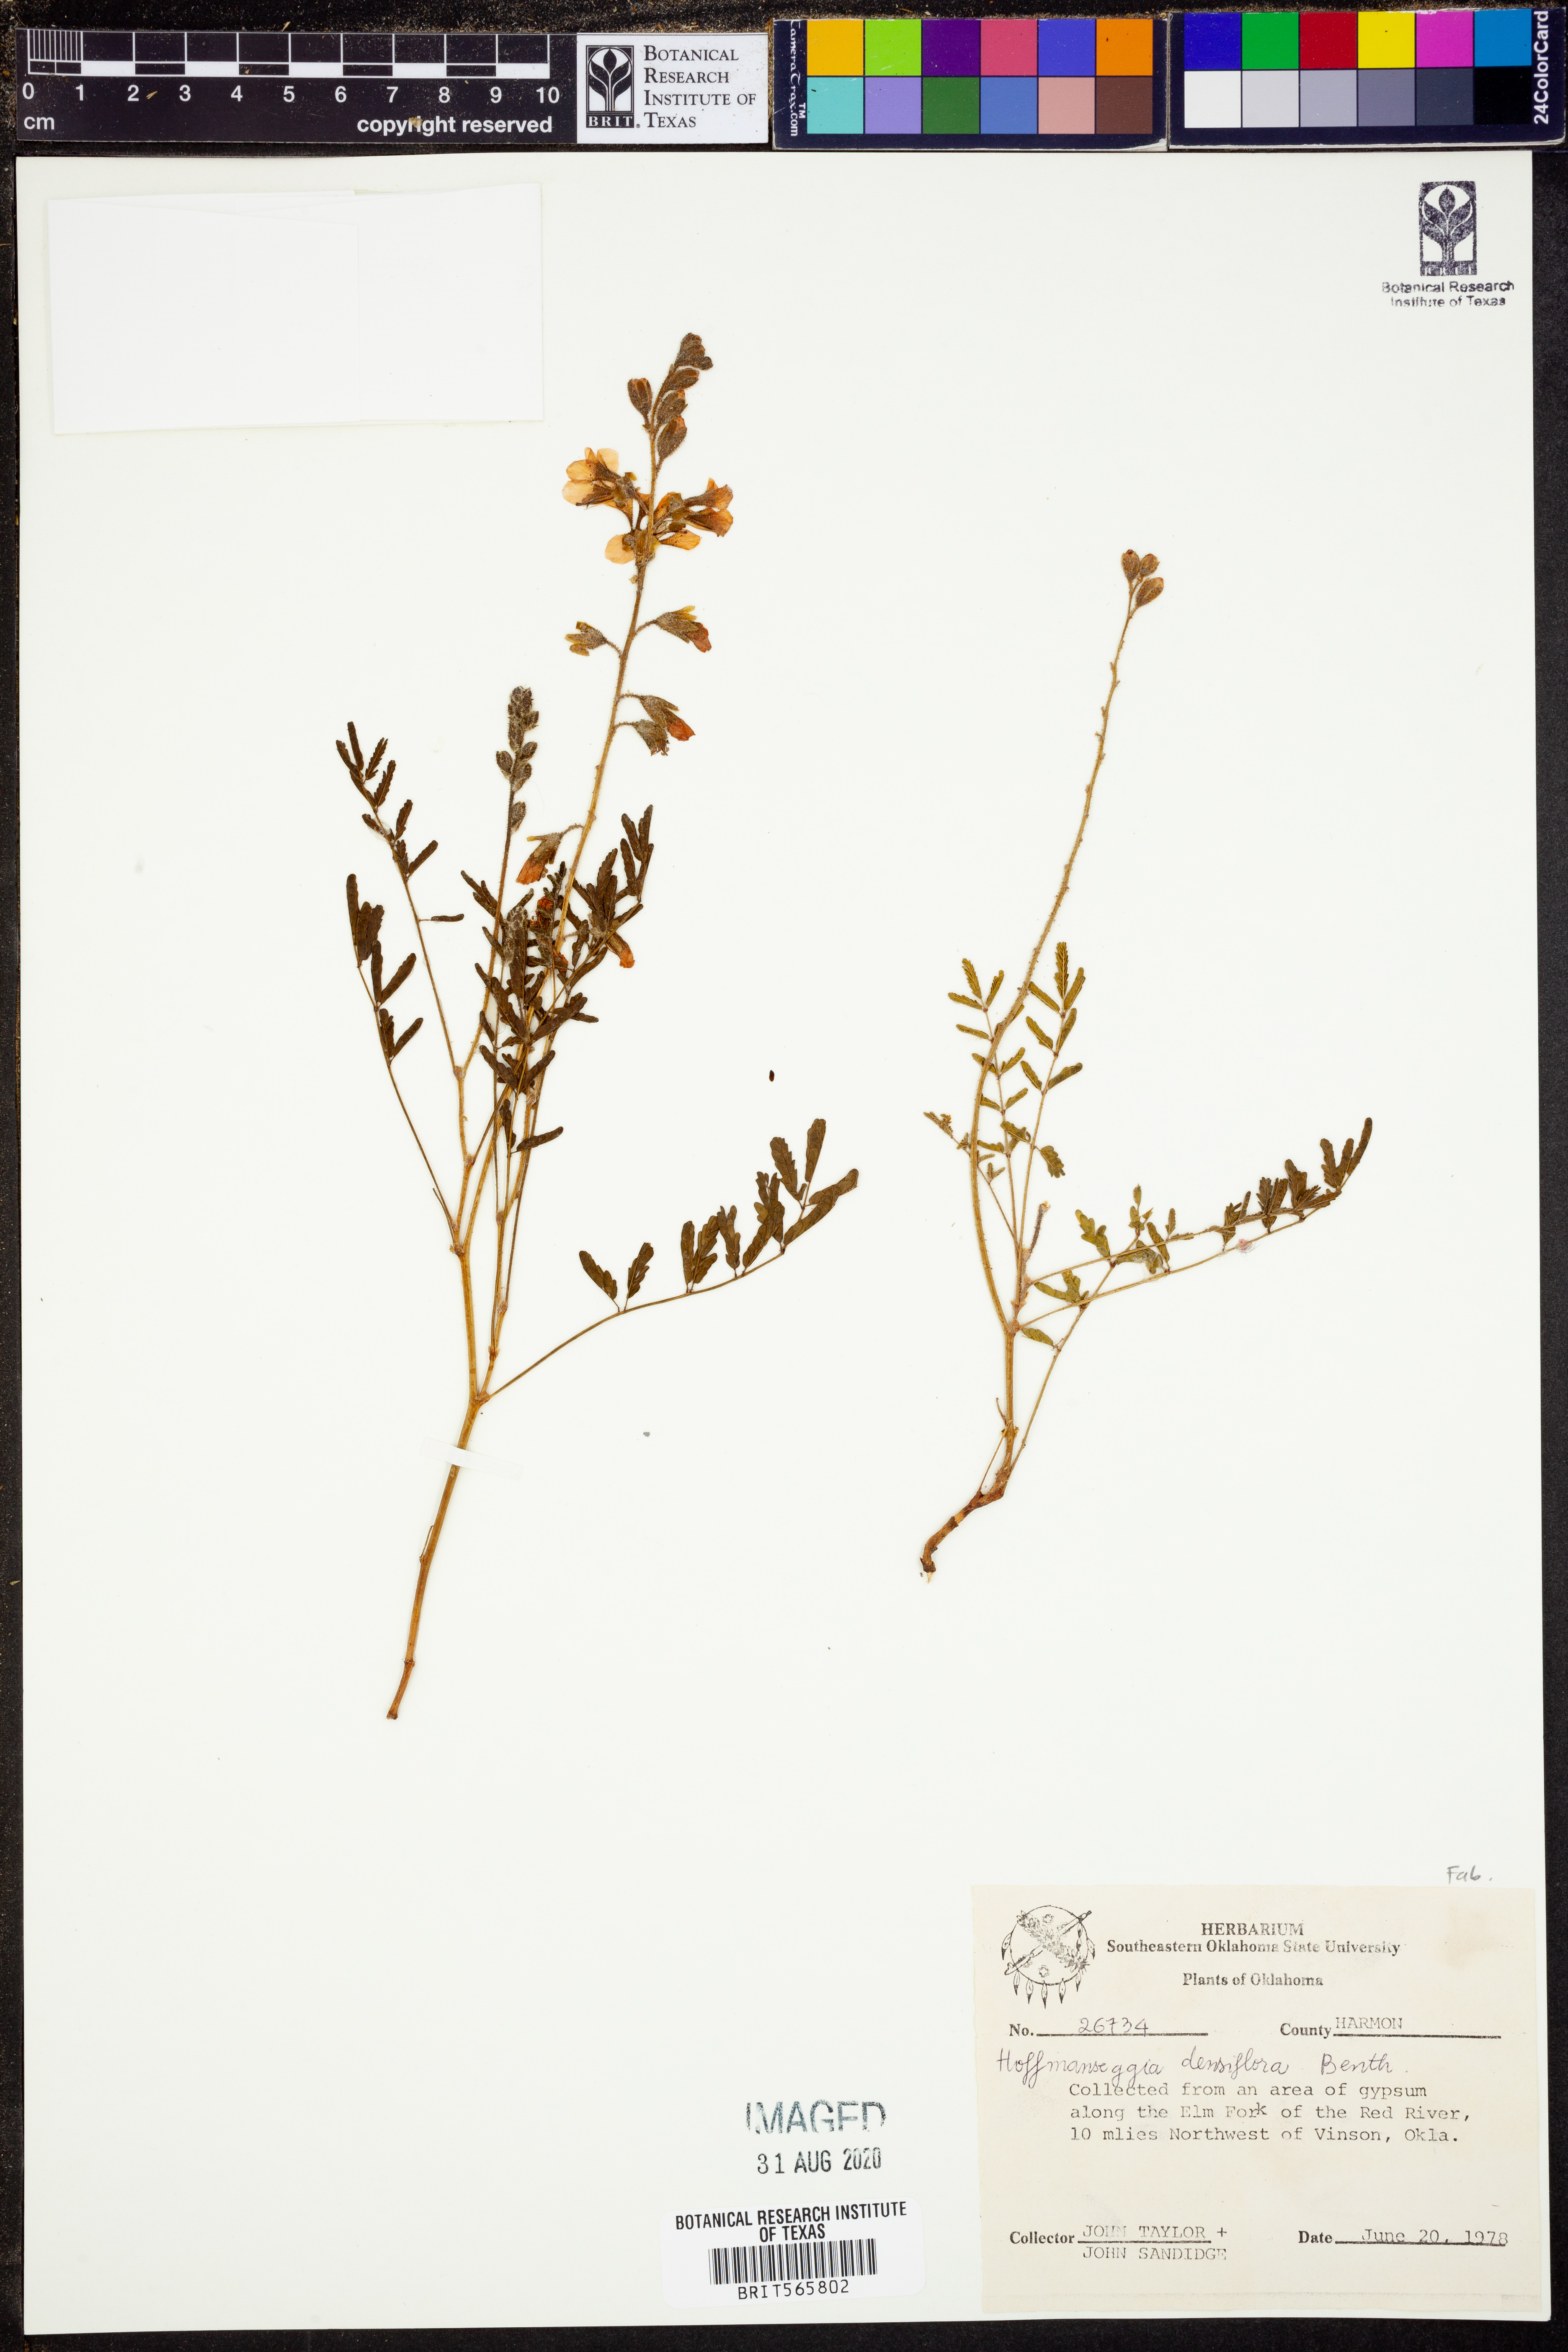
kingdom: Plantae
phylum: Tracheophyta
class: Magnoliopsida
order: Fabales
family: Fabaceae
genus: Hoffmannseggia
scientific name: Hoffmannseggia glauca
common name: Pignut
